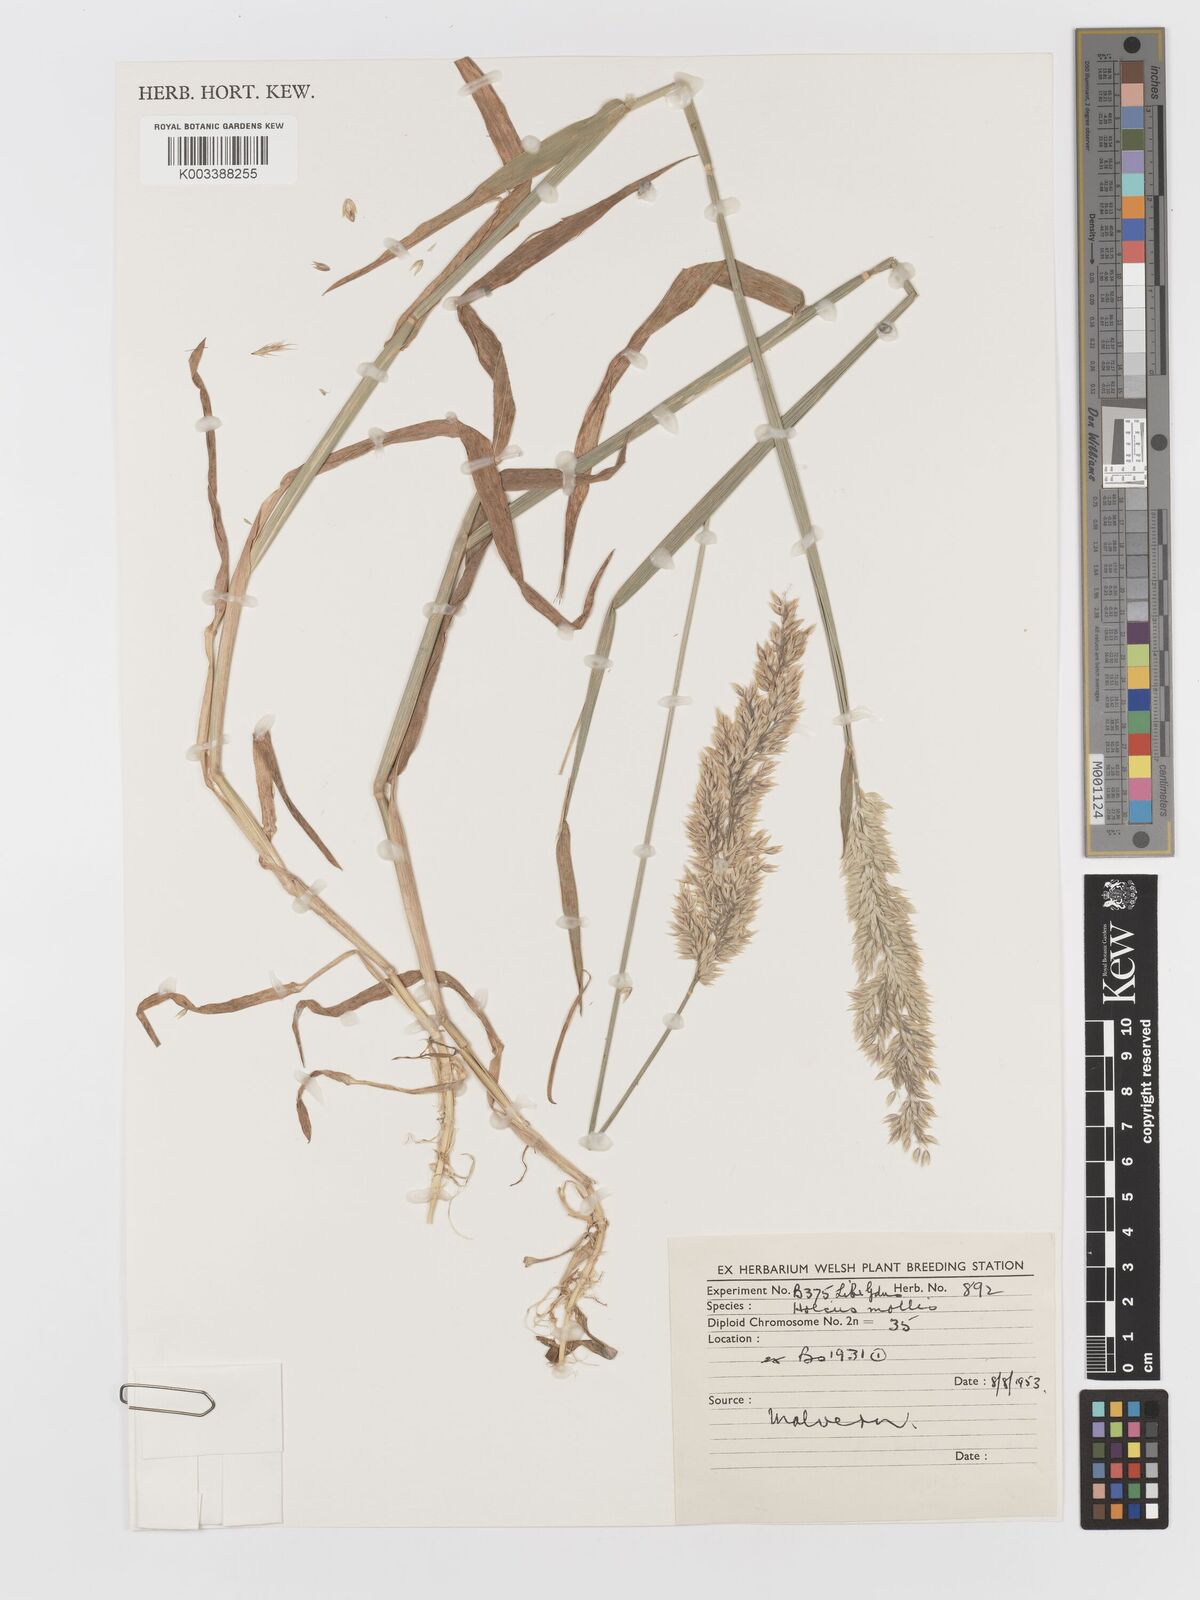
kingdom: Plantae
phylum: Tracheophyta
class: Liliopsida
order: Poales
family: Poaceae
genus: Holcus
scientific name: Holcus mollis
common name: Creeping velvetgrass
